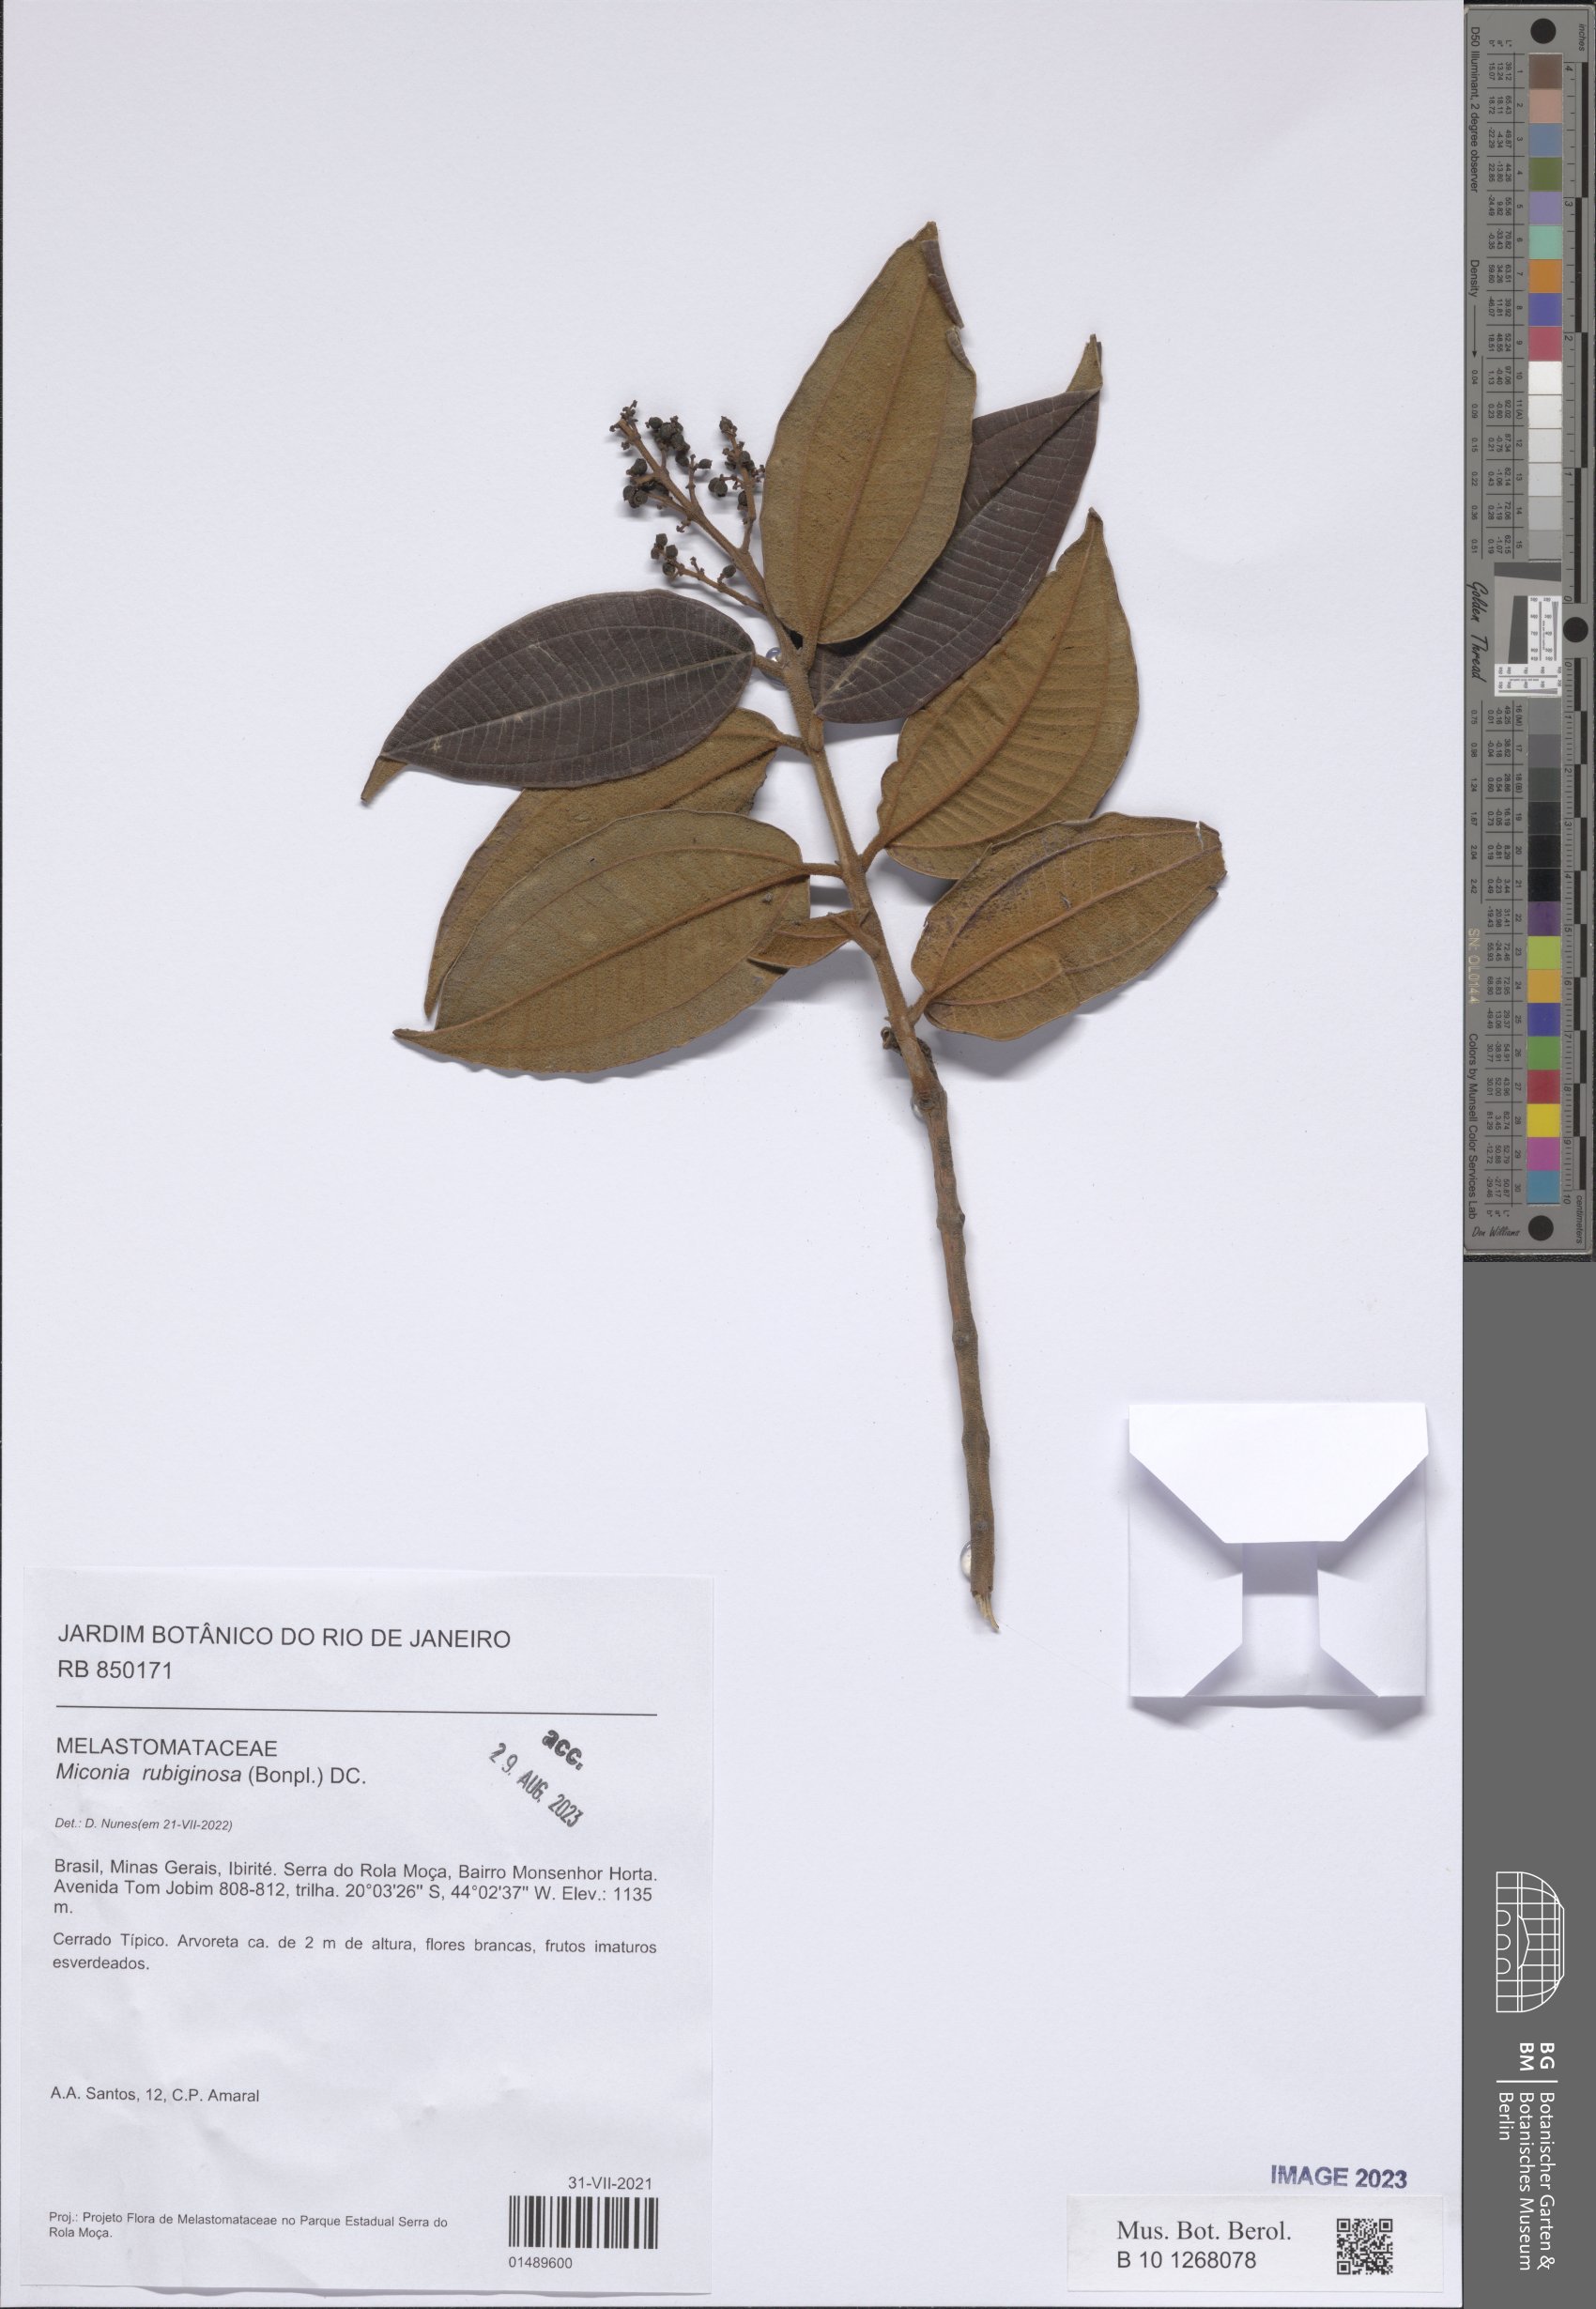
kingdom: Plantae
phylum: Tracheophyta
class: Magnoliopsida
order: Myrtales
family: Melastomataceae
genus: Miconia
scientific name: Miconia rubiginosa
